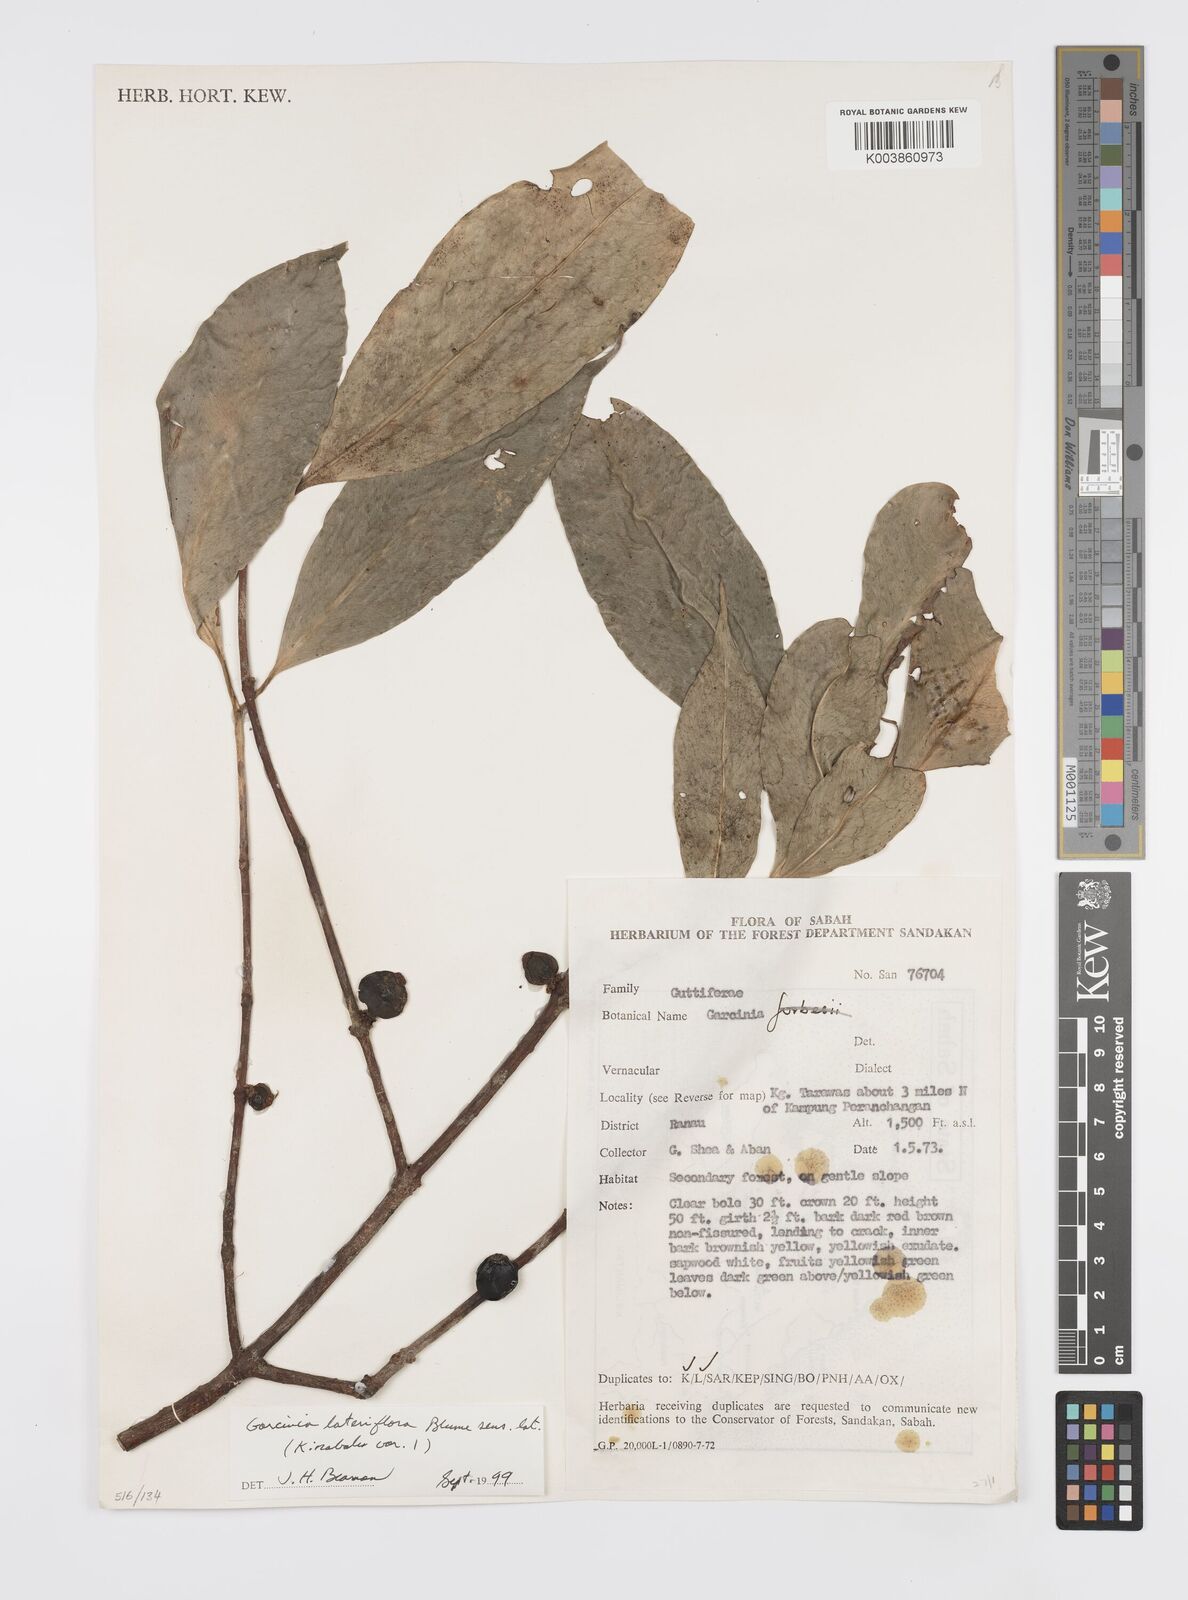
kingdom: Plantae
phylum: Tracheophyta
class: Magnoliopsida
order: Malpighiales
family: Clusiaceae
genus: Garcinia
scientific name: Garcinia lateriflora
